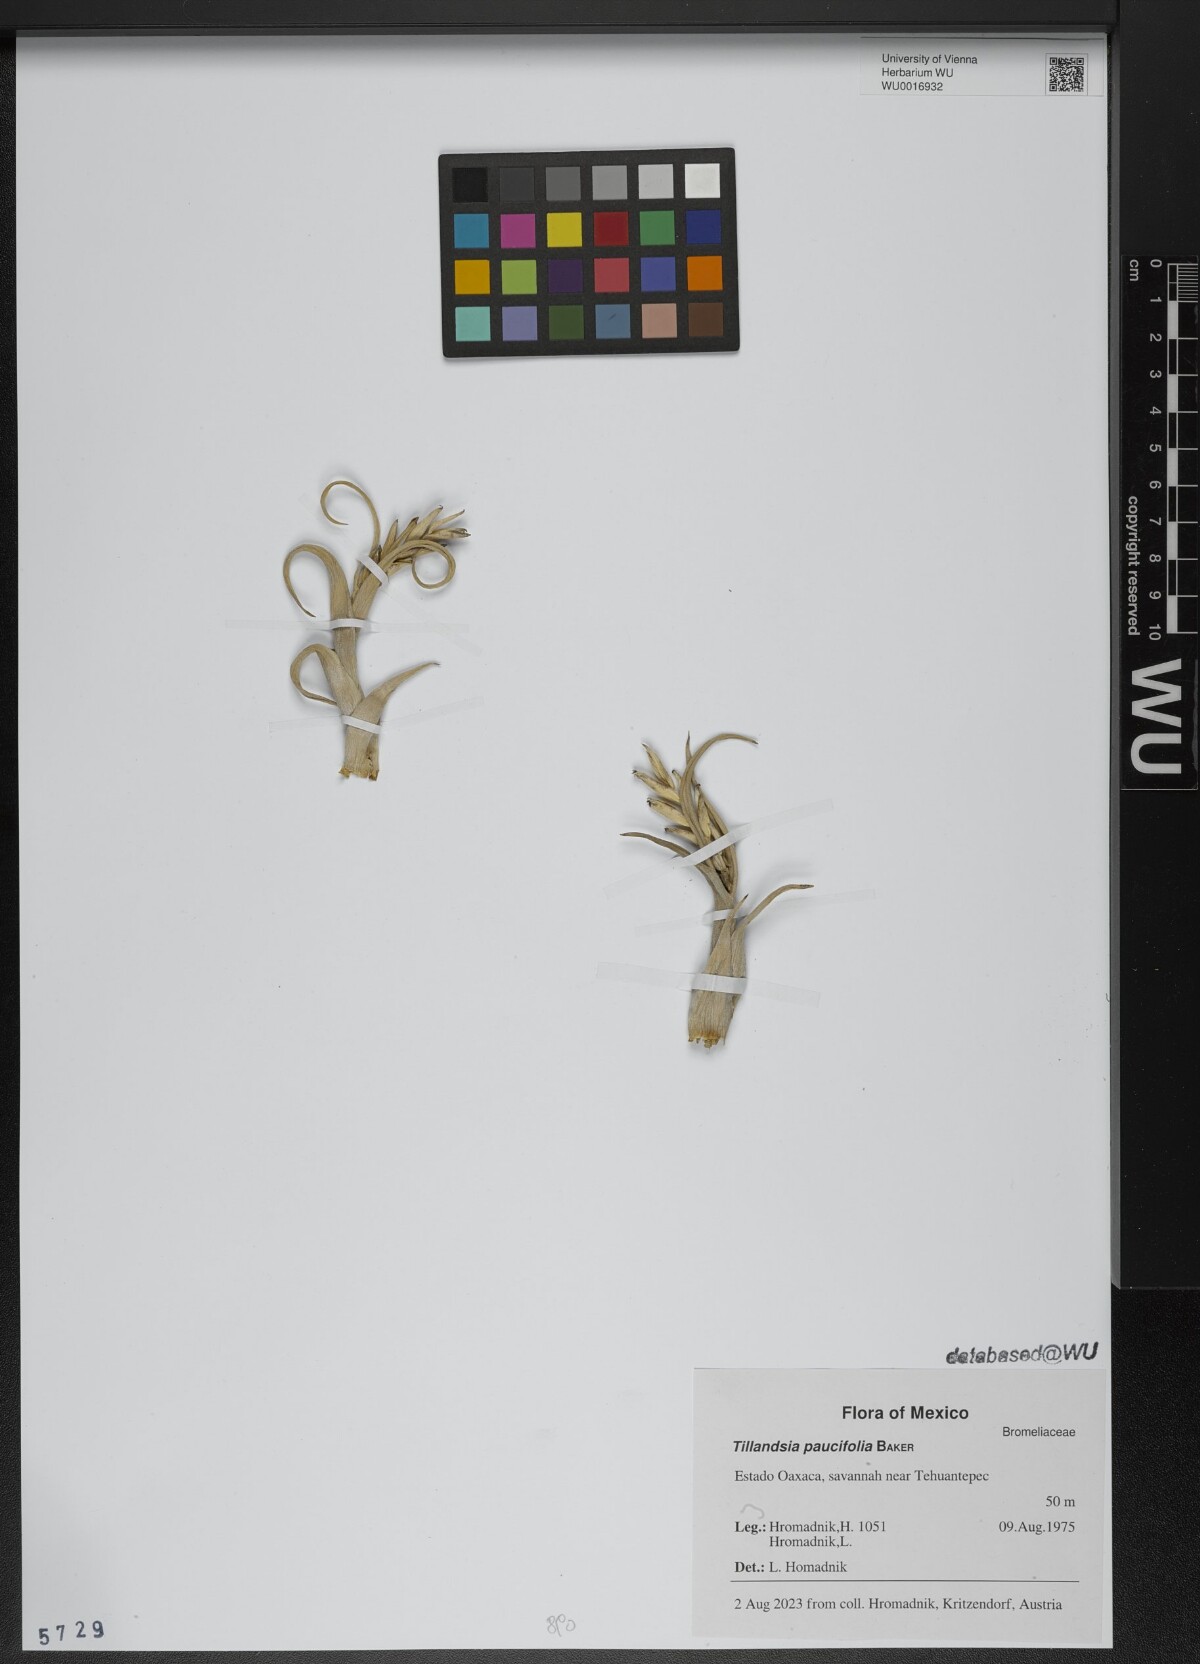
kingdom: Plantae
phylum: Tracheophyta
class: Liliopsida
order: Poales
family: Bromeliaceae
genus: Tillandsia
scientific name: Tillandsia paucifolia
